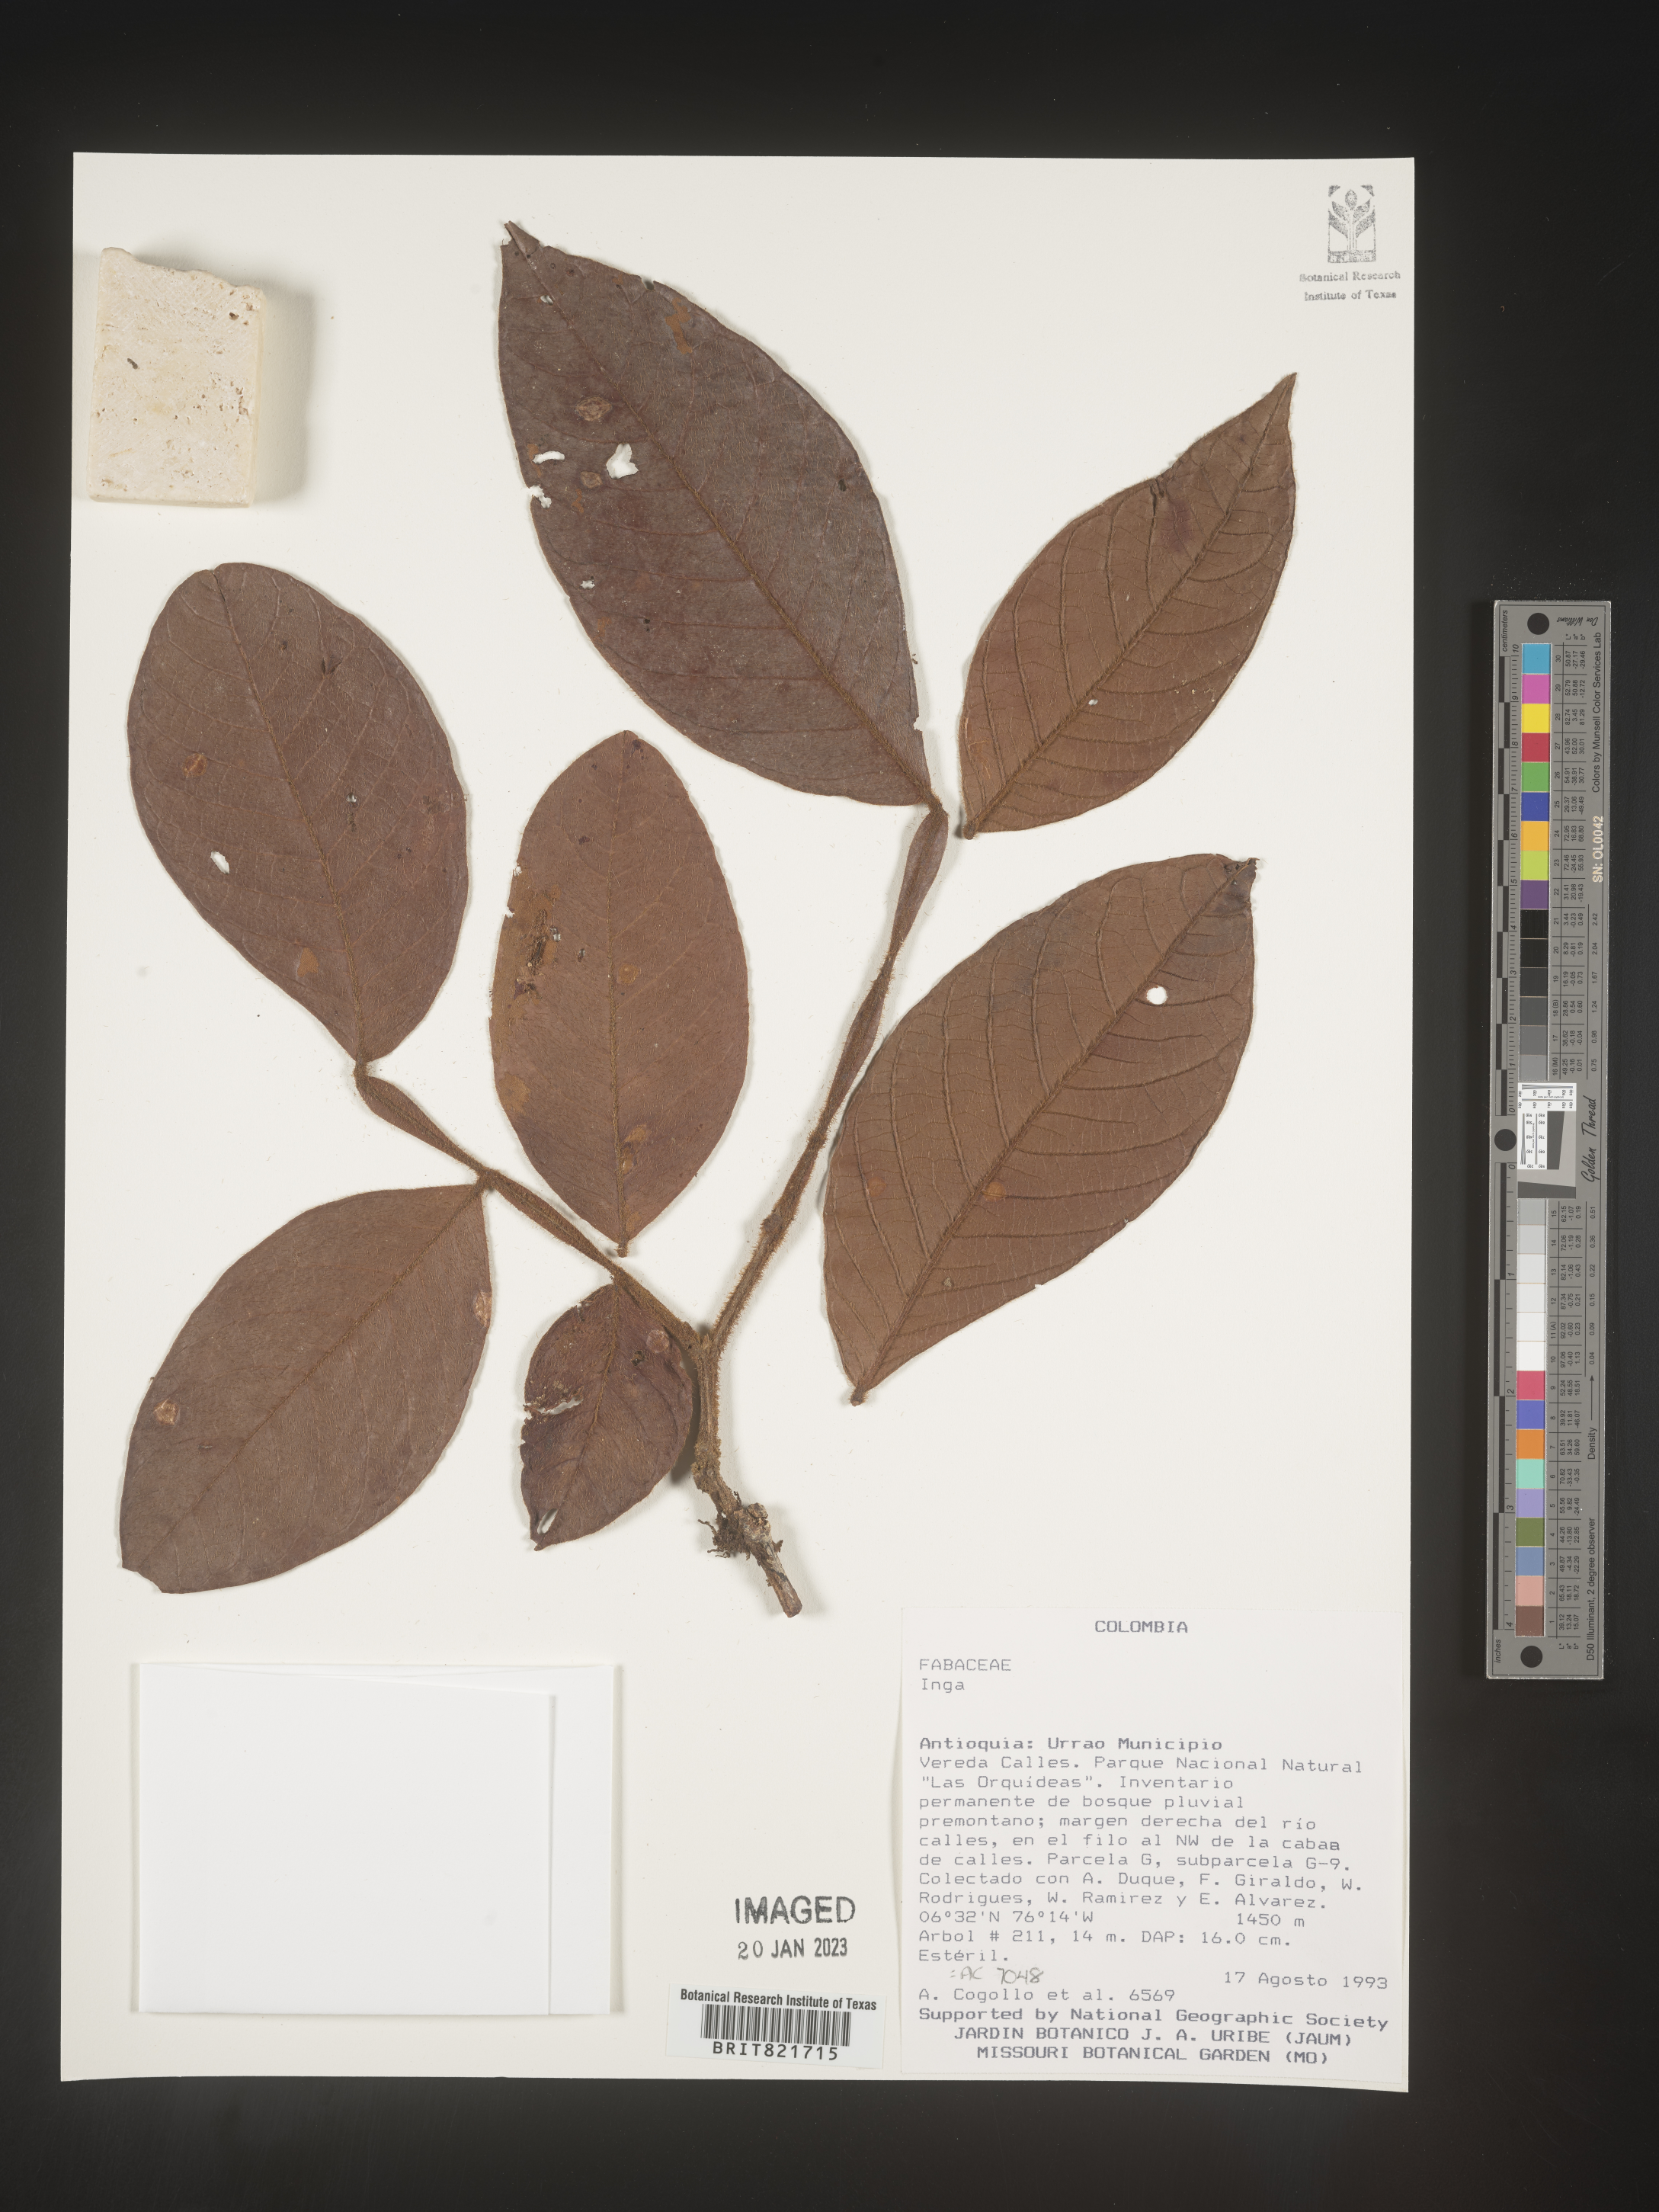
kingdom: Plantae
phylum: Tracheophyta
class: Magnoliopsida
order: Fabales
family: Fabaceae
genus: Inga
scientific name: Inga
